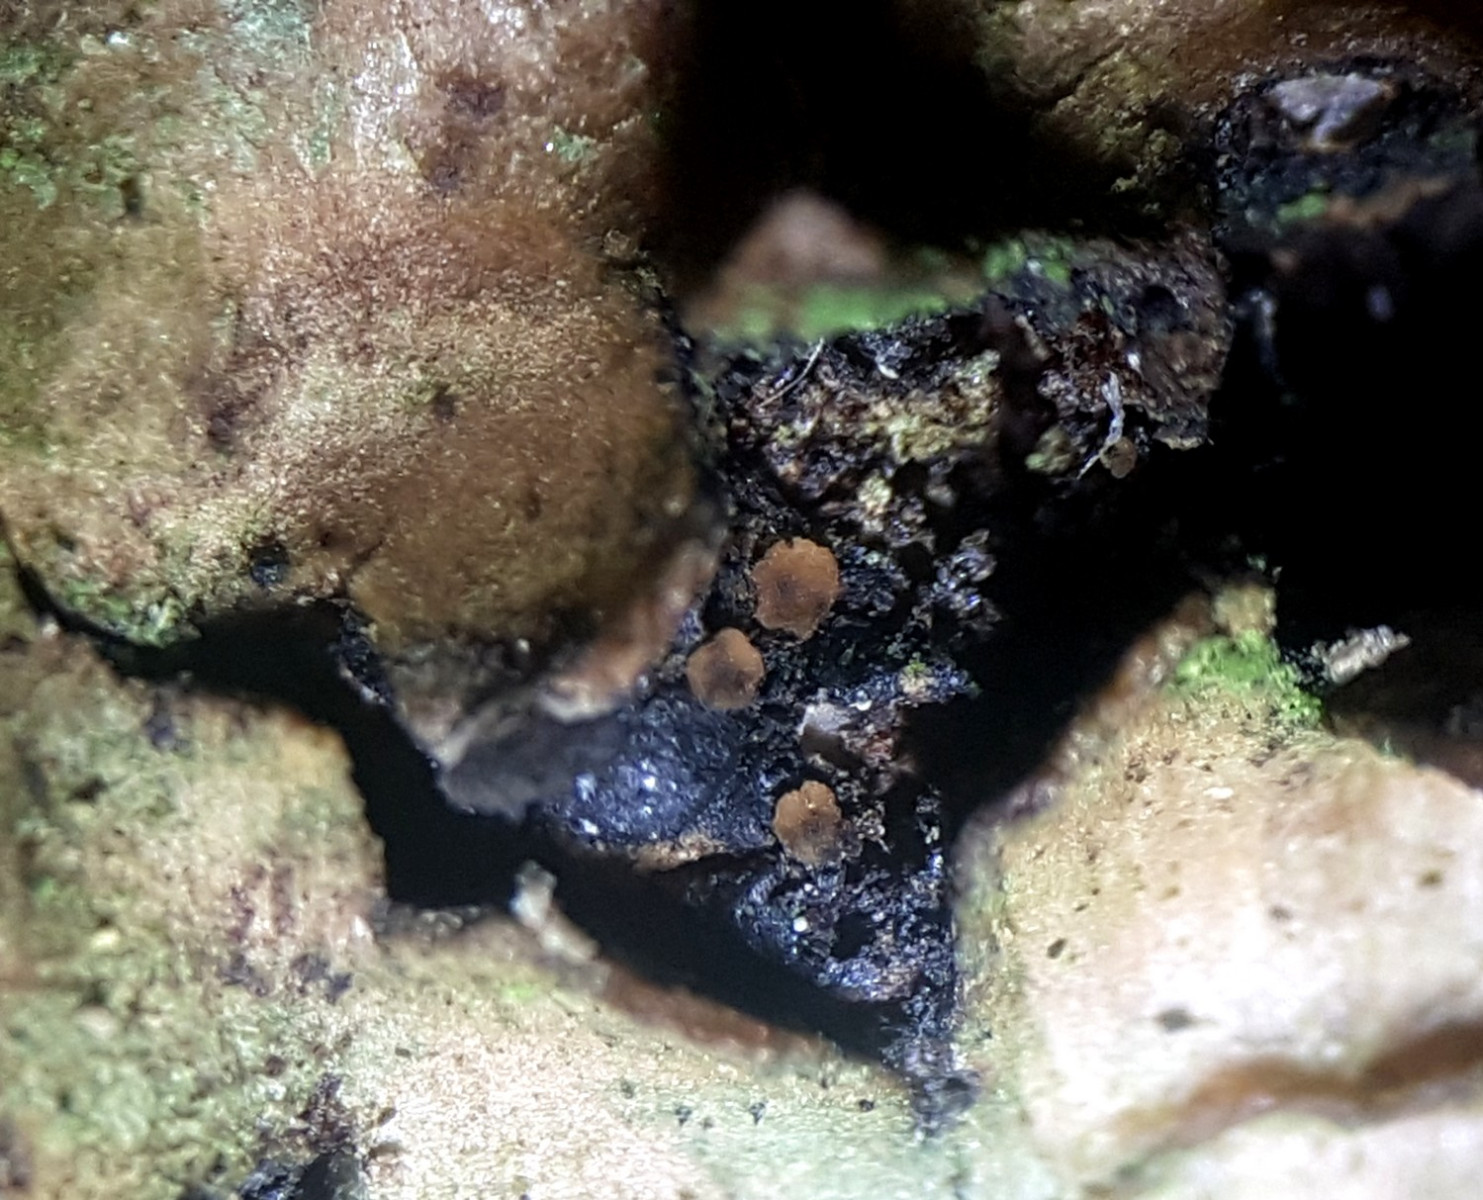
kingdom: Fungi
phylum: Ascomycota
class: Orbiliomycetes
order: Orbiliales
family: Orbiliaceae
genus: Orbilia
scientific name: Orbilia
